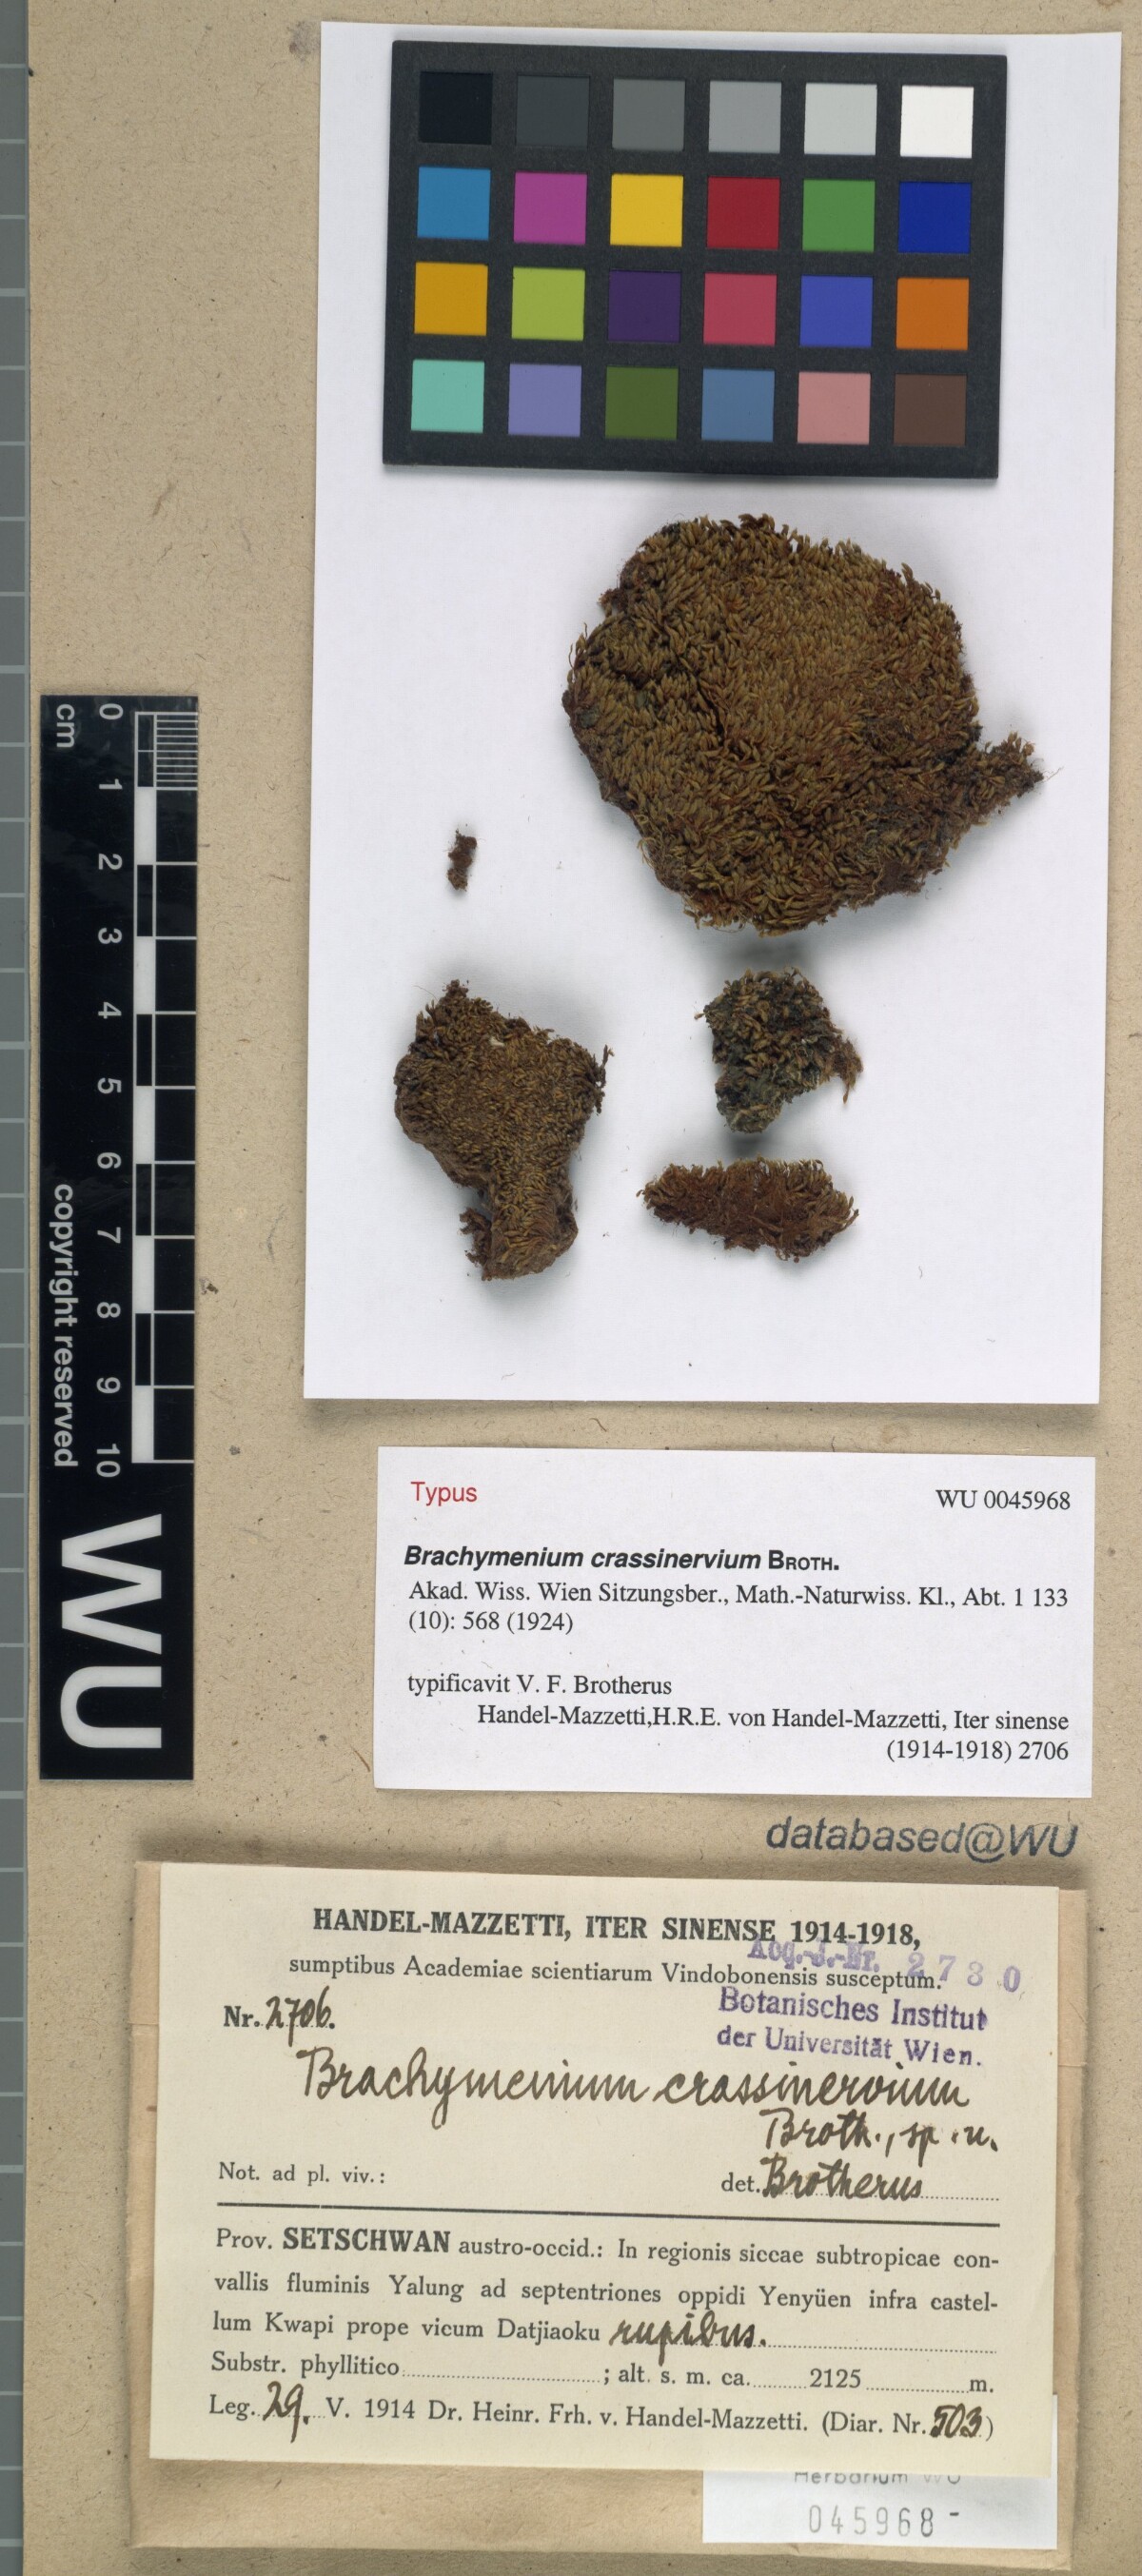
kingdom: Plantae
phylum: Bryophyta
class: Bryopsida
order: Bryales
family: Bryaceae
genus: Leptostomopsis
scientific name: Leptostomopsis systylia
